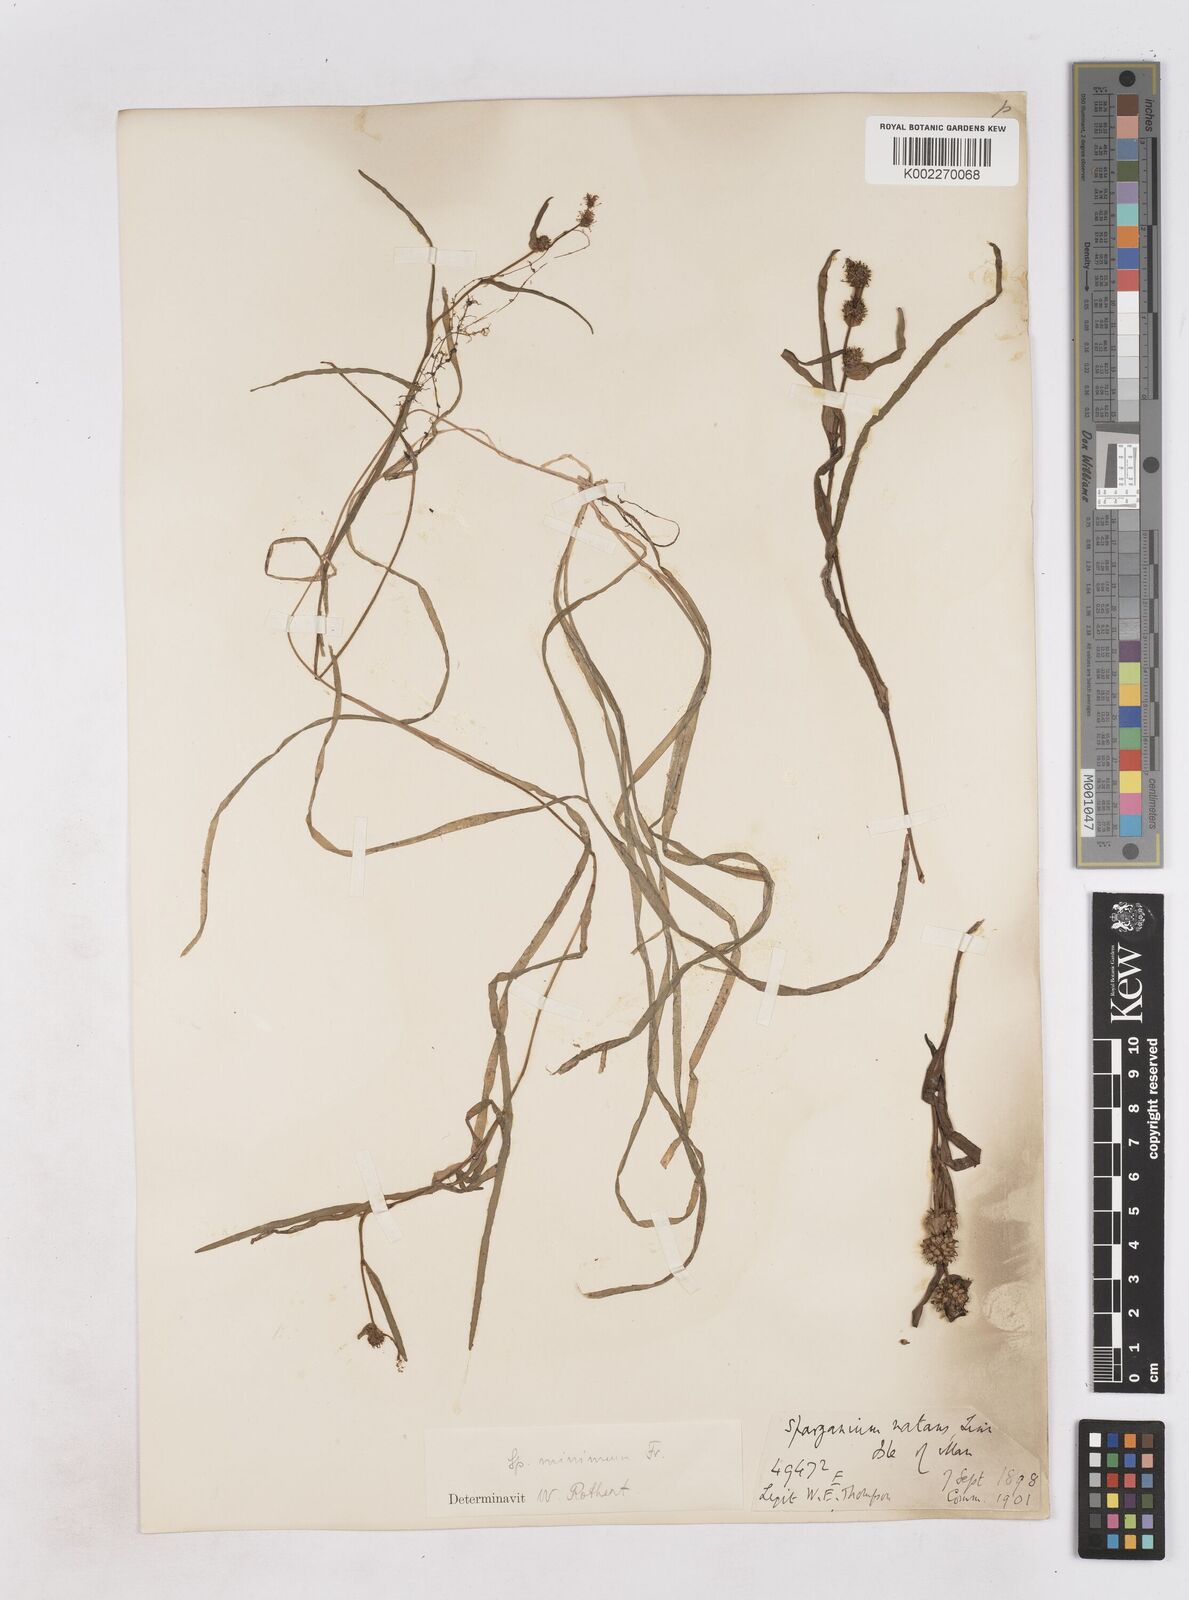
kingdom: Plantae
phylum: Tracheophyta
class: Liliopsida
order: Poales
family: Typhaceae
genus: Sparganium
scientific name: Sparganium natans
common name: Least bur-reed
